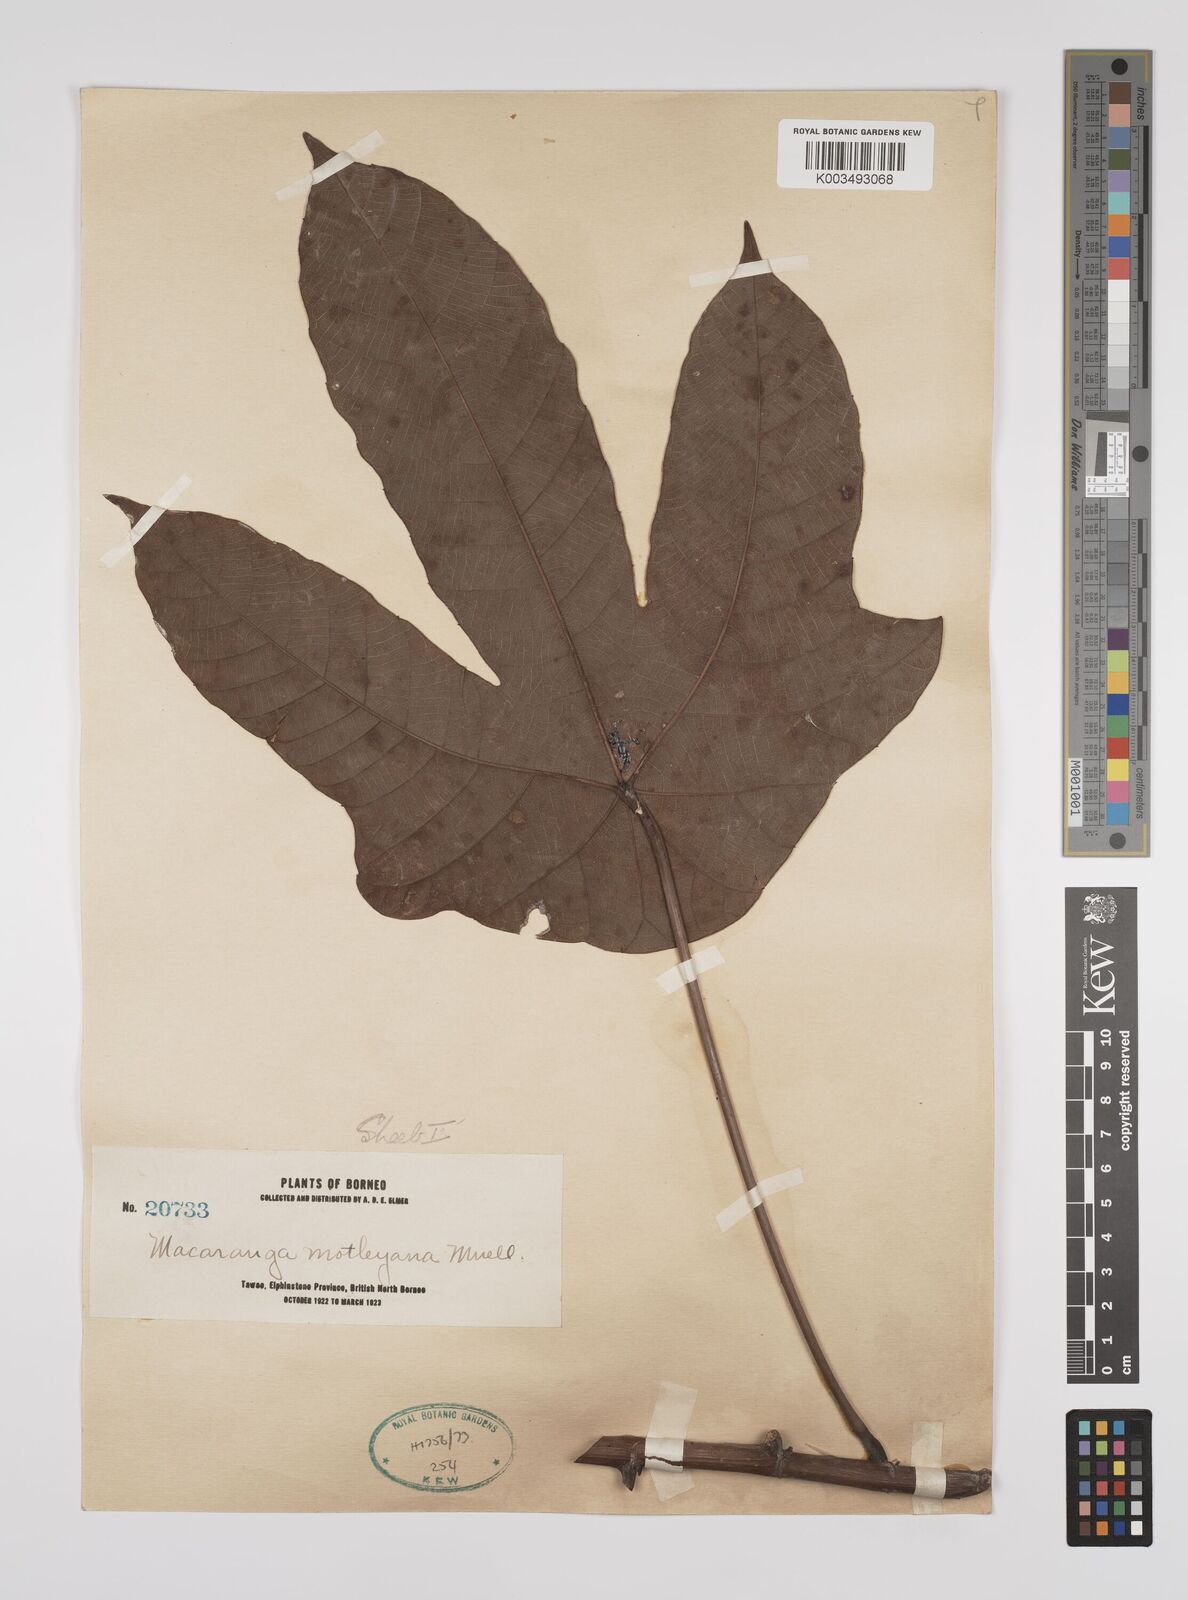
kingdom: Plantae
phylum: Tracheophyta
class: Magnoliopsida
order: Malpighiales
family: Euphorbiaceae
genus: Macaranga
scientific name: Macaranga motleyana
